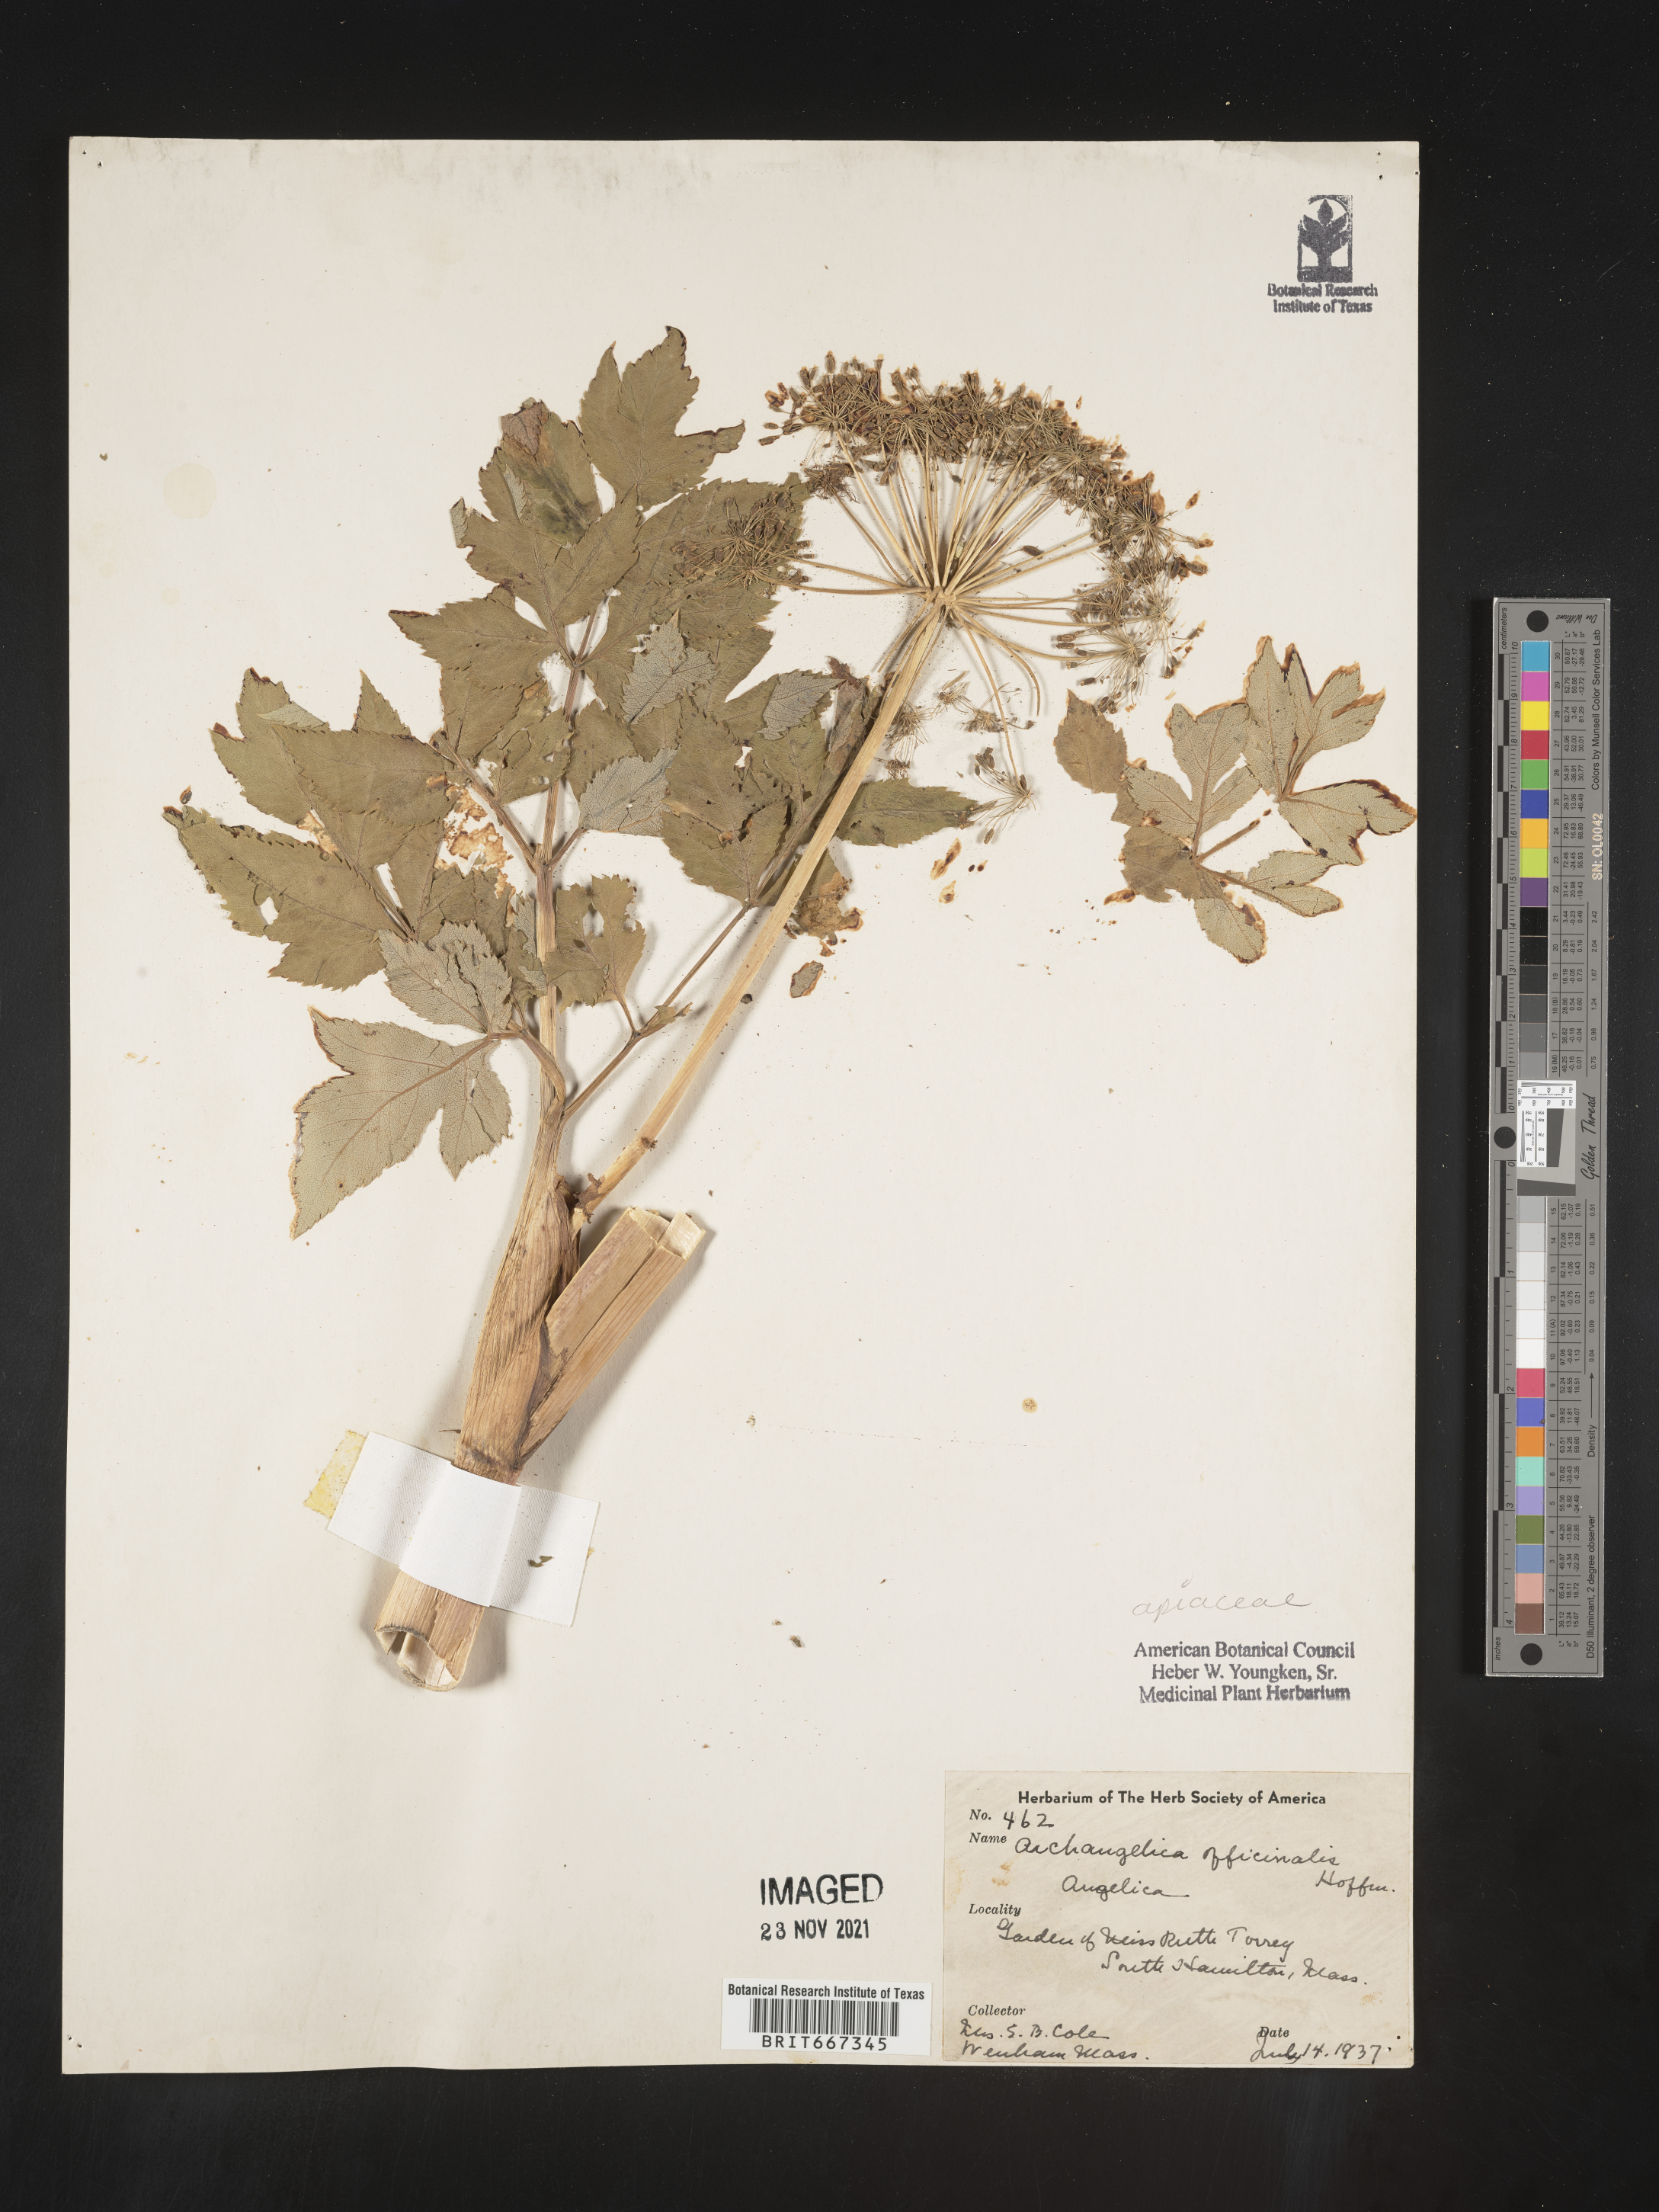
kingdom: Plantae
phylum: Tracheophyta
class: Magnoliopsida
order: Apiales
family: Apiaceae
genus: Angelica
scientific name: Angelica
